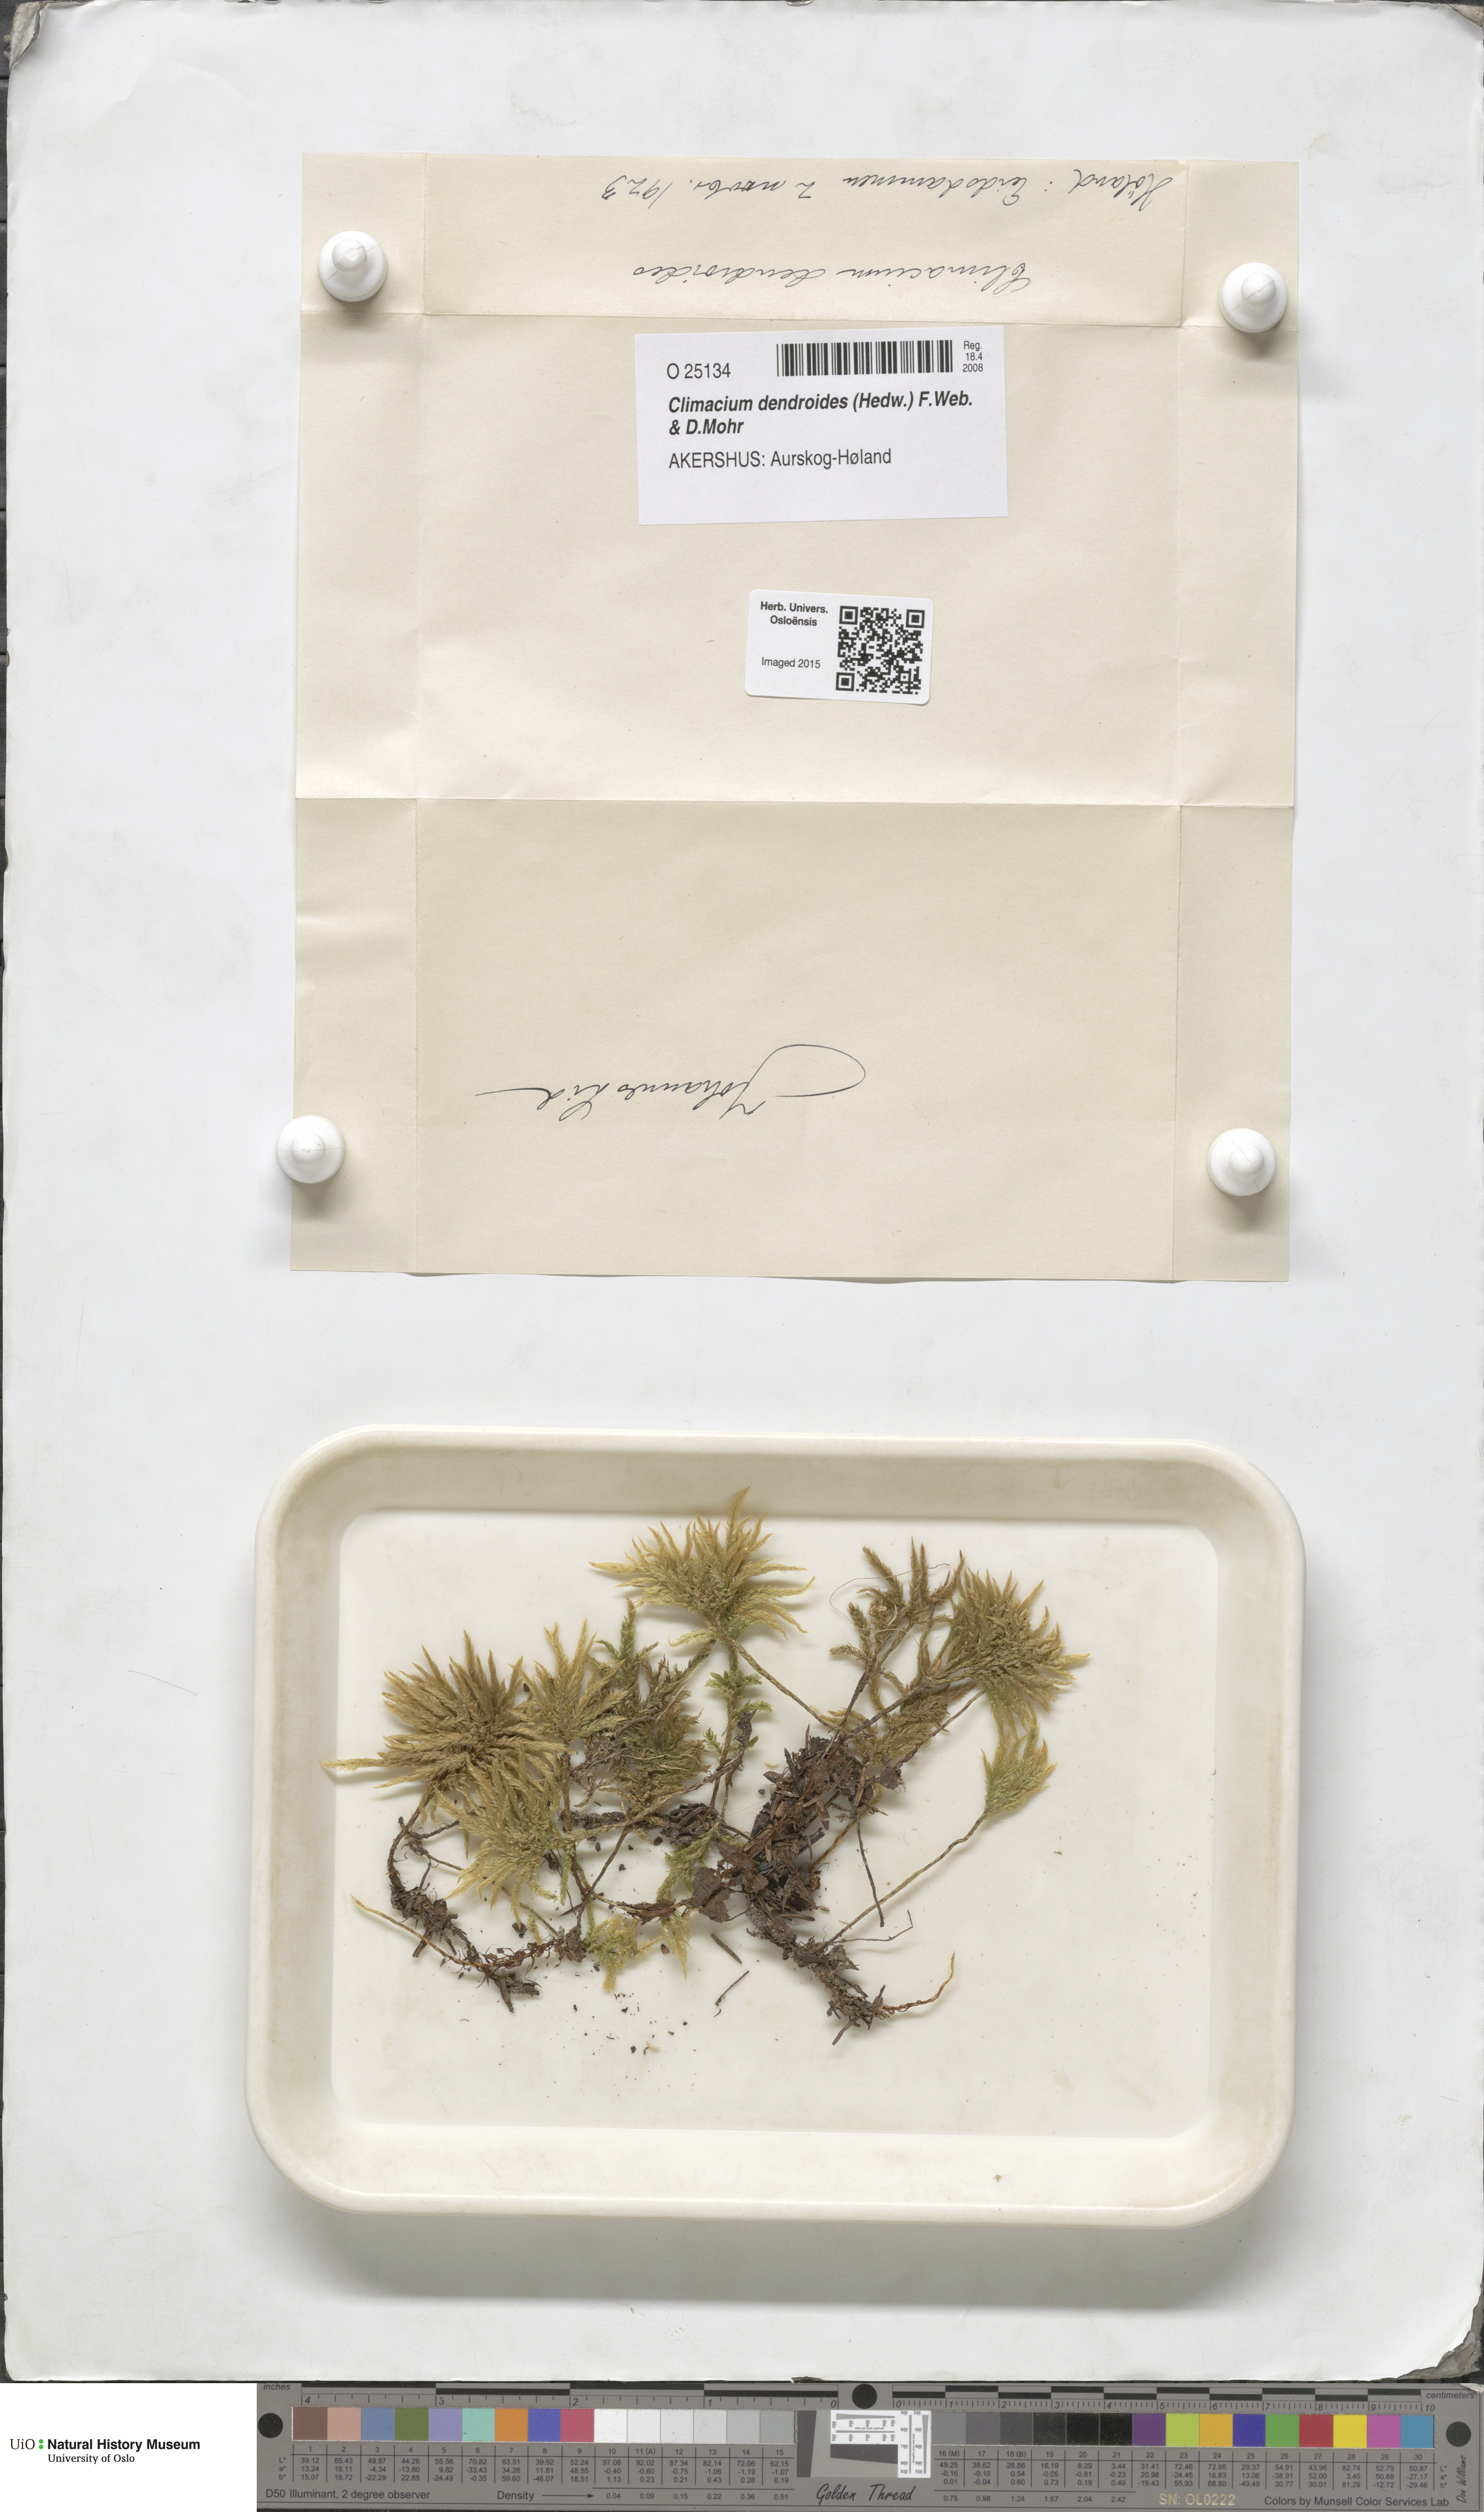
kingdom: Plantae
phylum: Bryophyta
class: Bryopsida
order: Hypnales
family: Climaciaceae
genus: Climacium
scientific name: Climacium dendroides
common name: Northern tree moss
